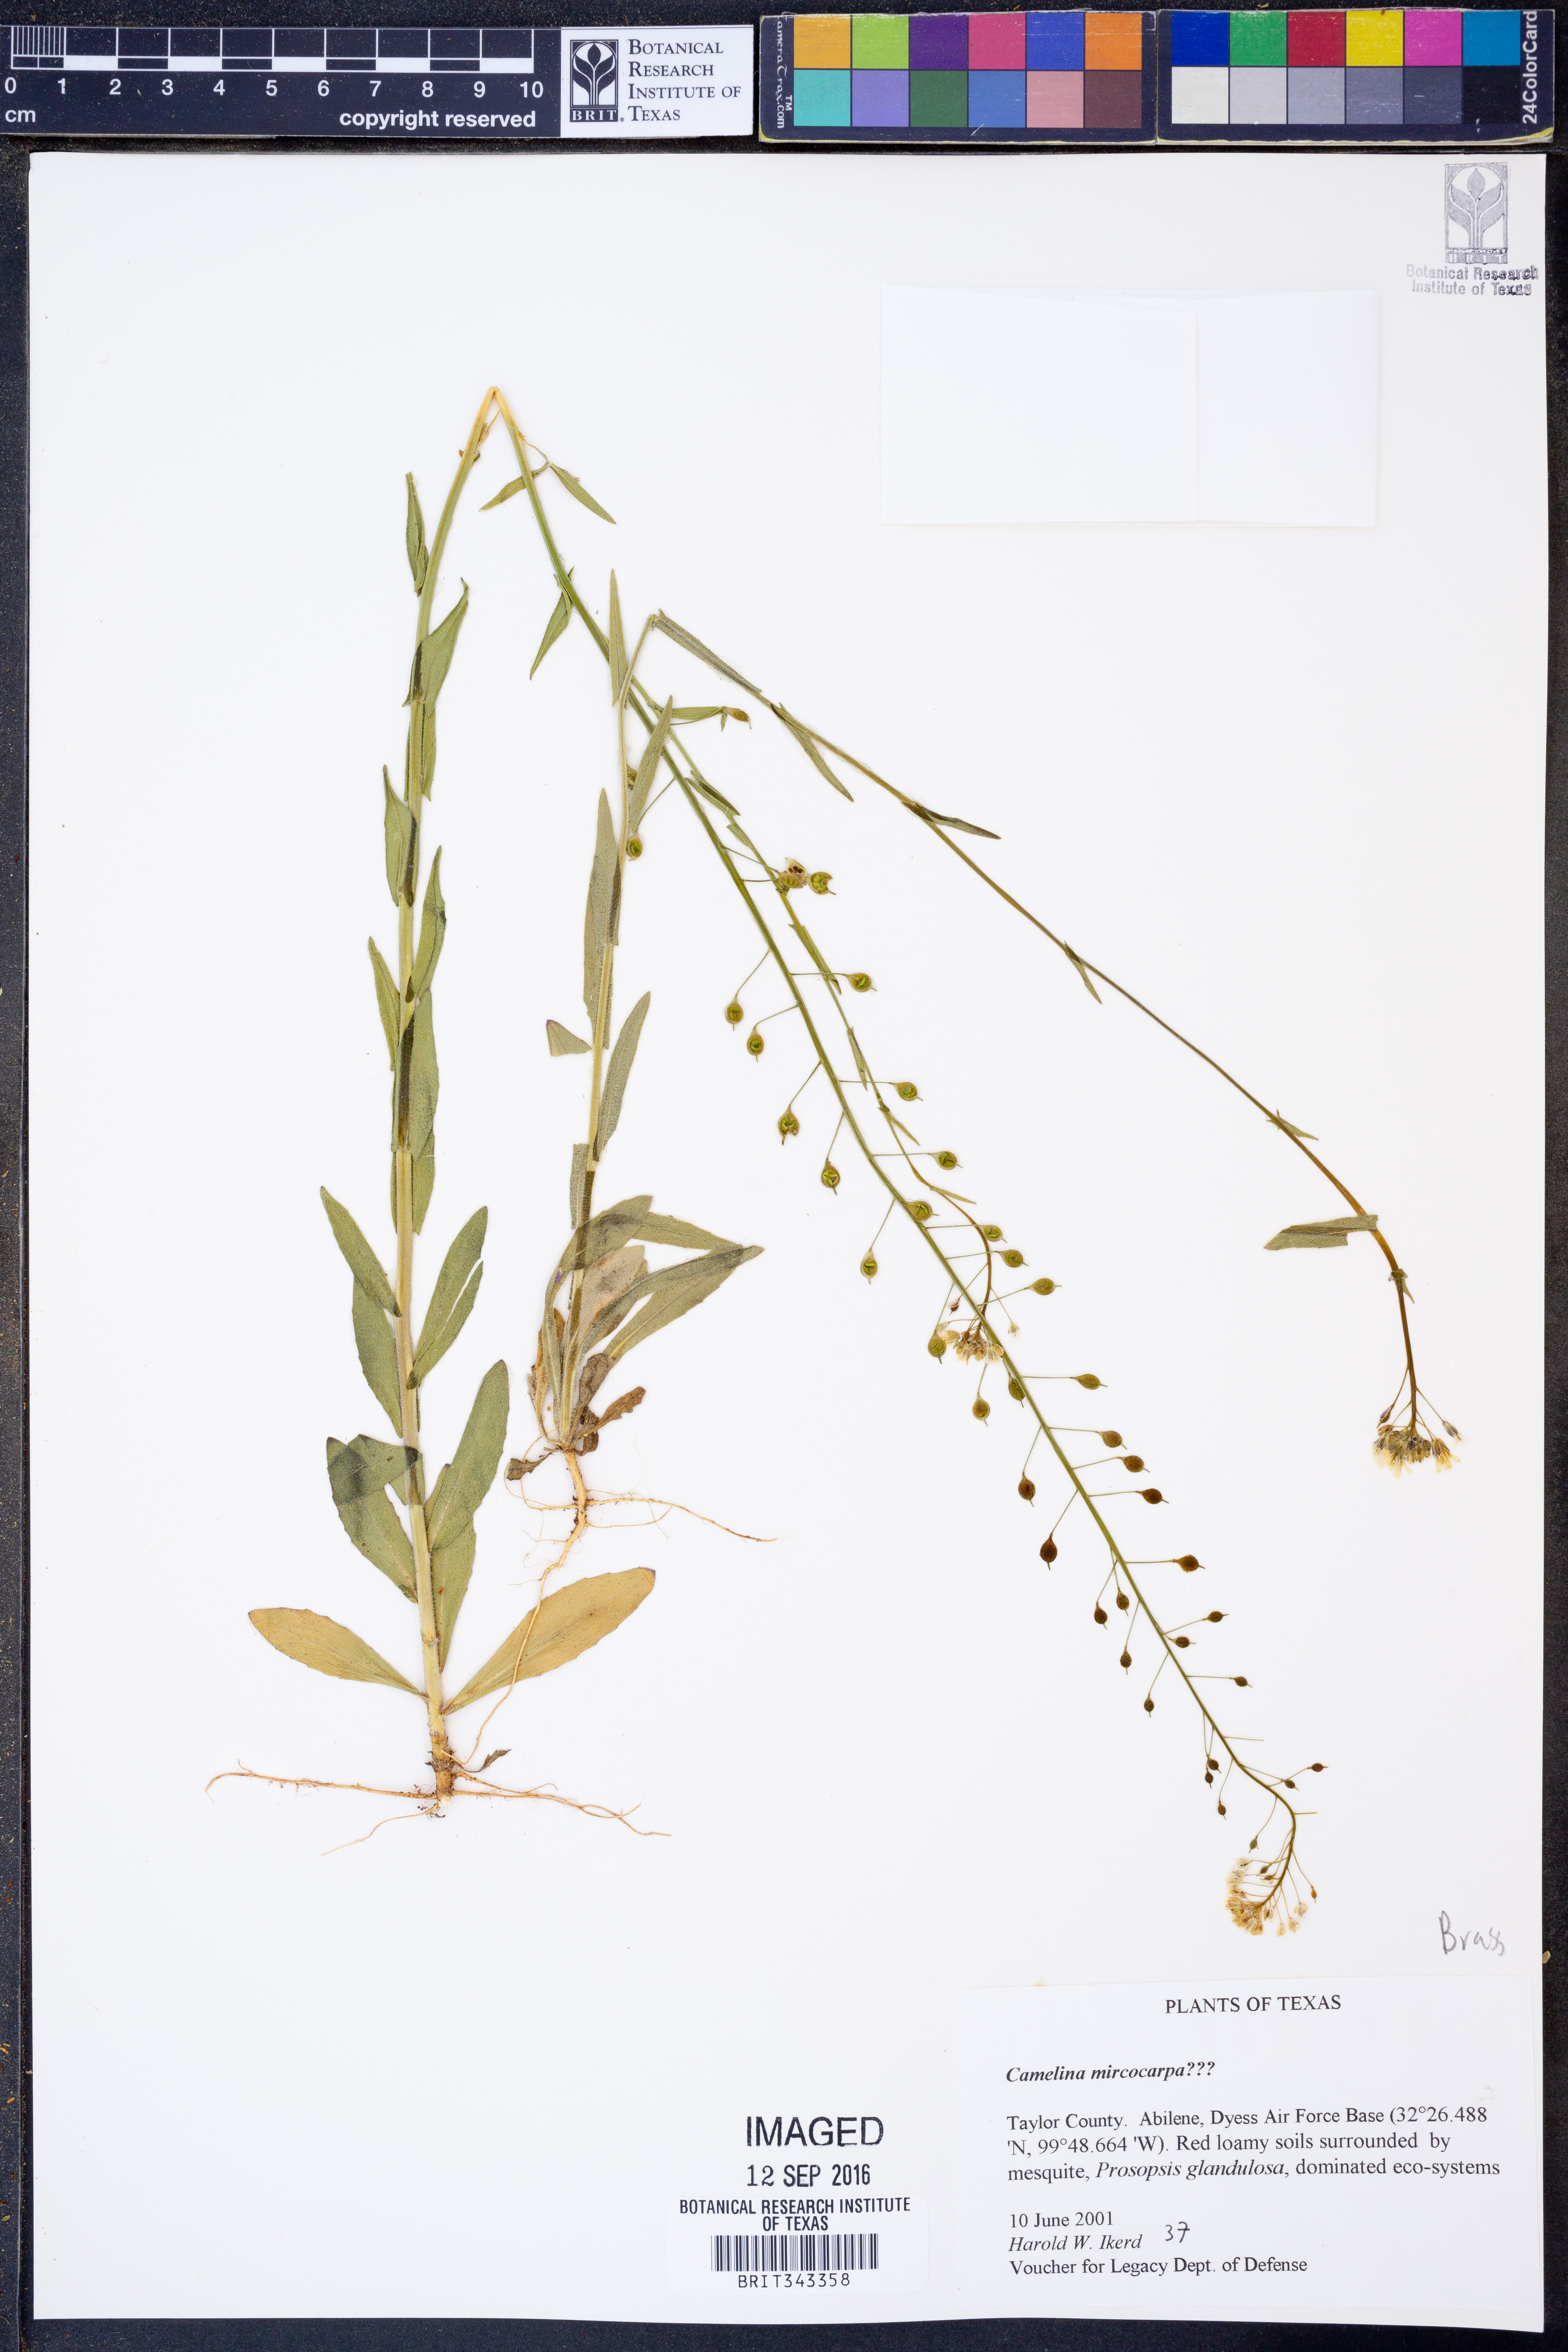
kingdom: Plantae
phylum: Tracheophyta
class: Magnoliopsida
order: Brassicales
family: Brassicaceae
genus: Camelina
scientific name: Camelina microcarpa
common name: Lesser gold-of-pleasure
